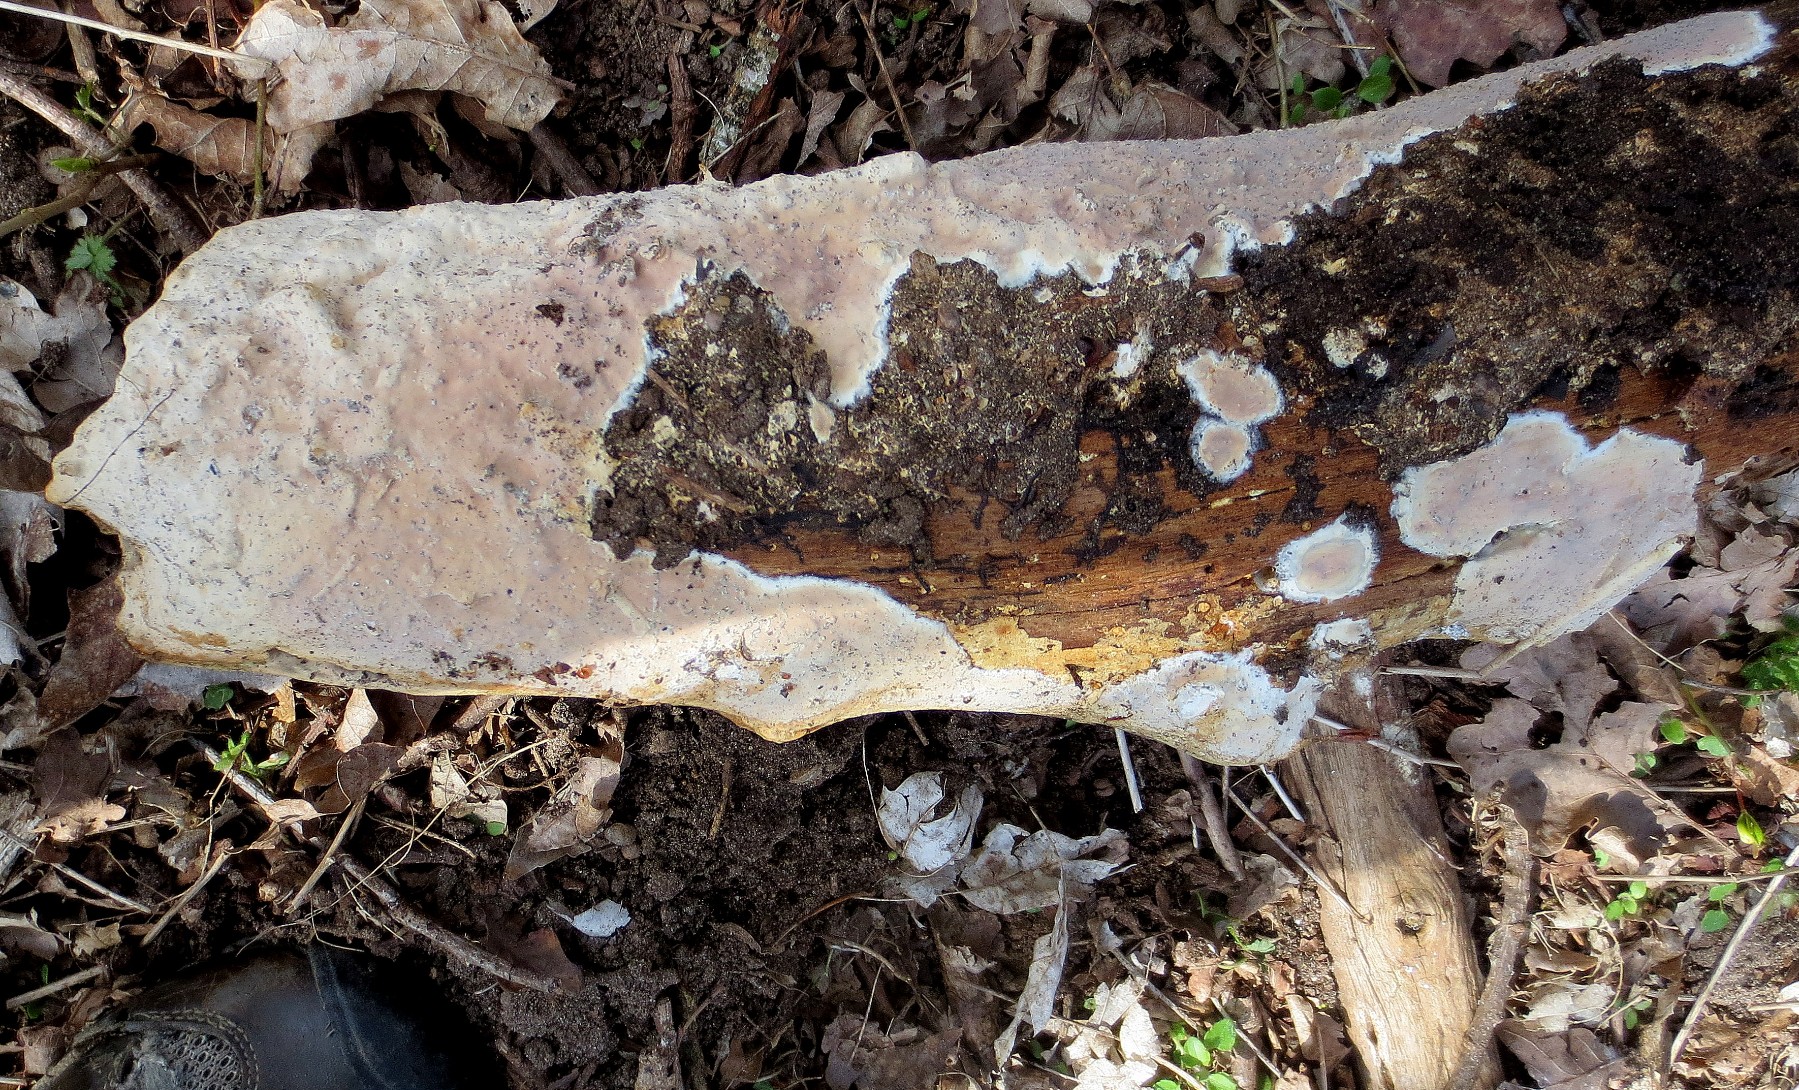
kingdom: Fungi
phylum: Basidiomycota
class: Agaricomycetes
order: Russulales
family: Peniophoraceae
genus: Scytinostroma
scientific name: Scytinostroma hemidichophyticum
